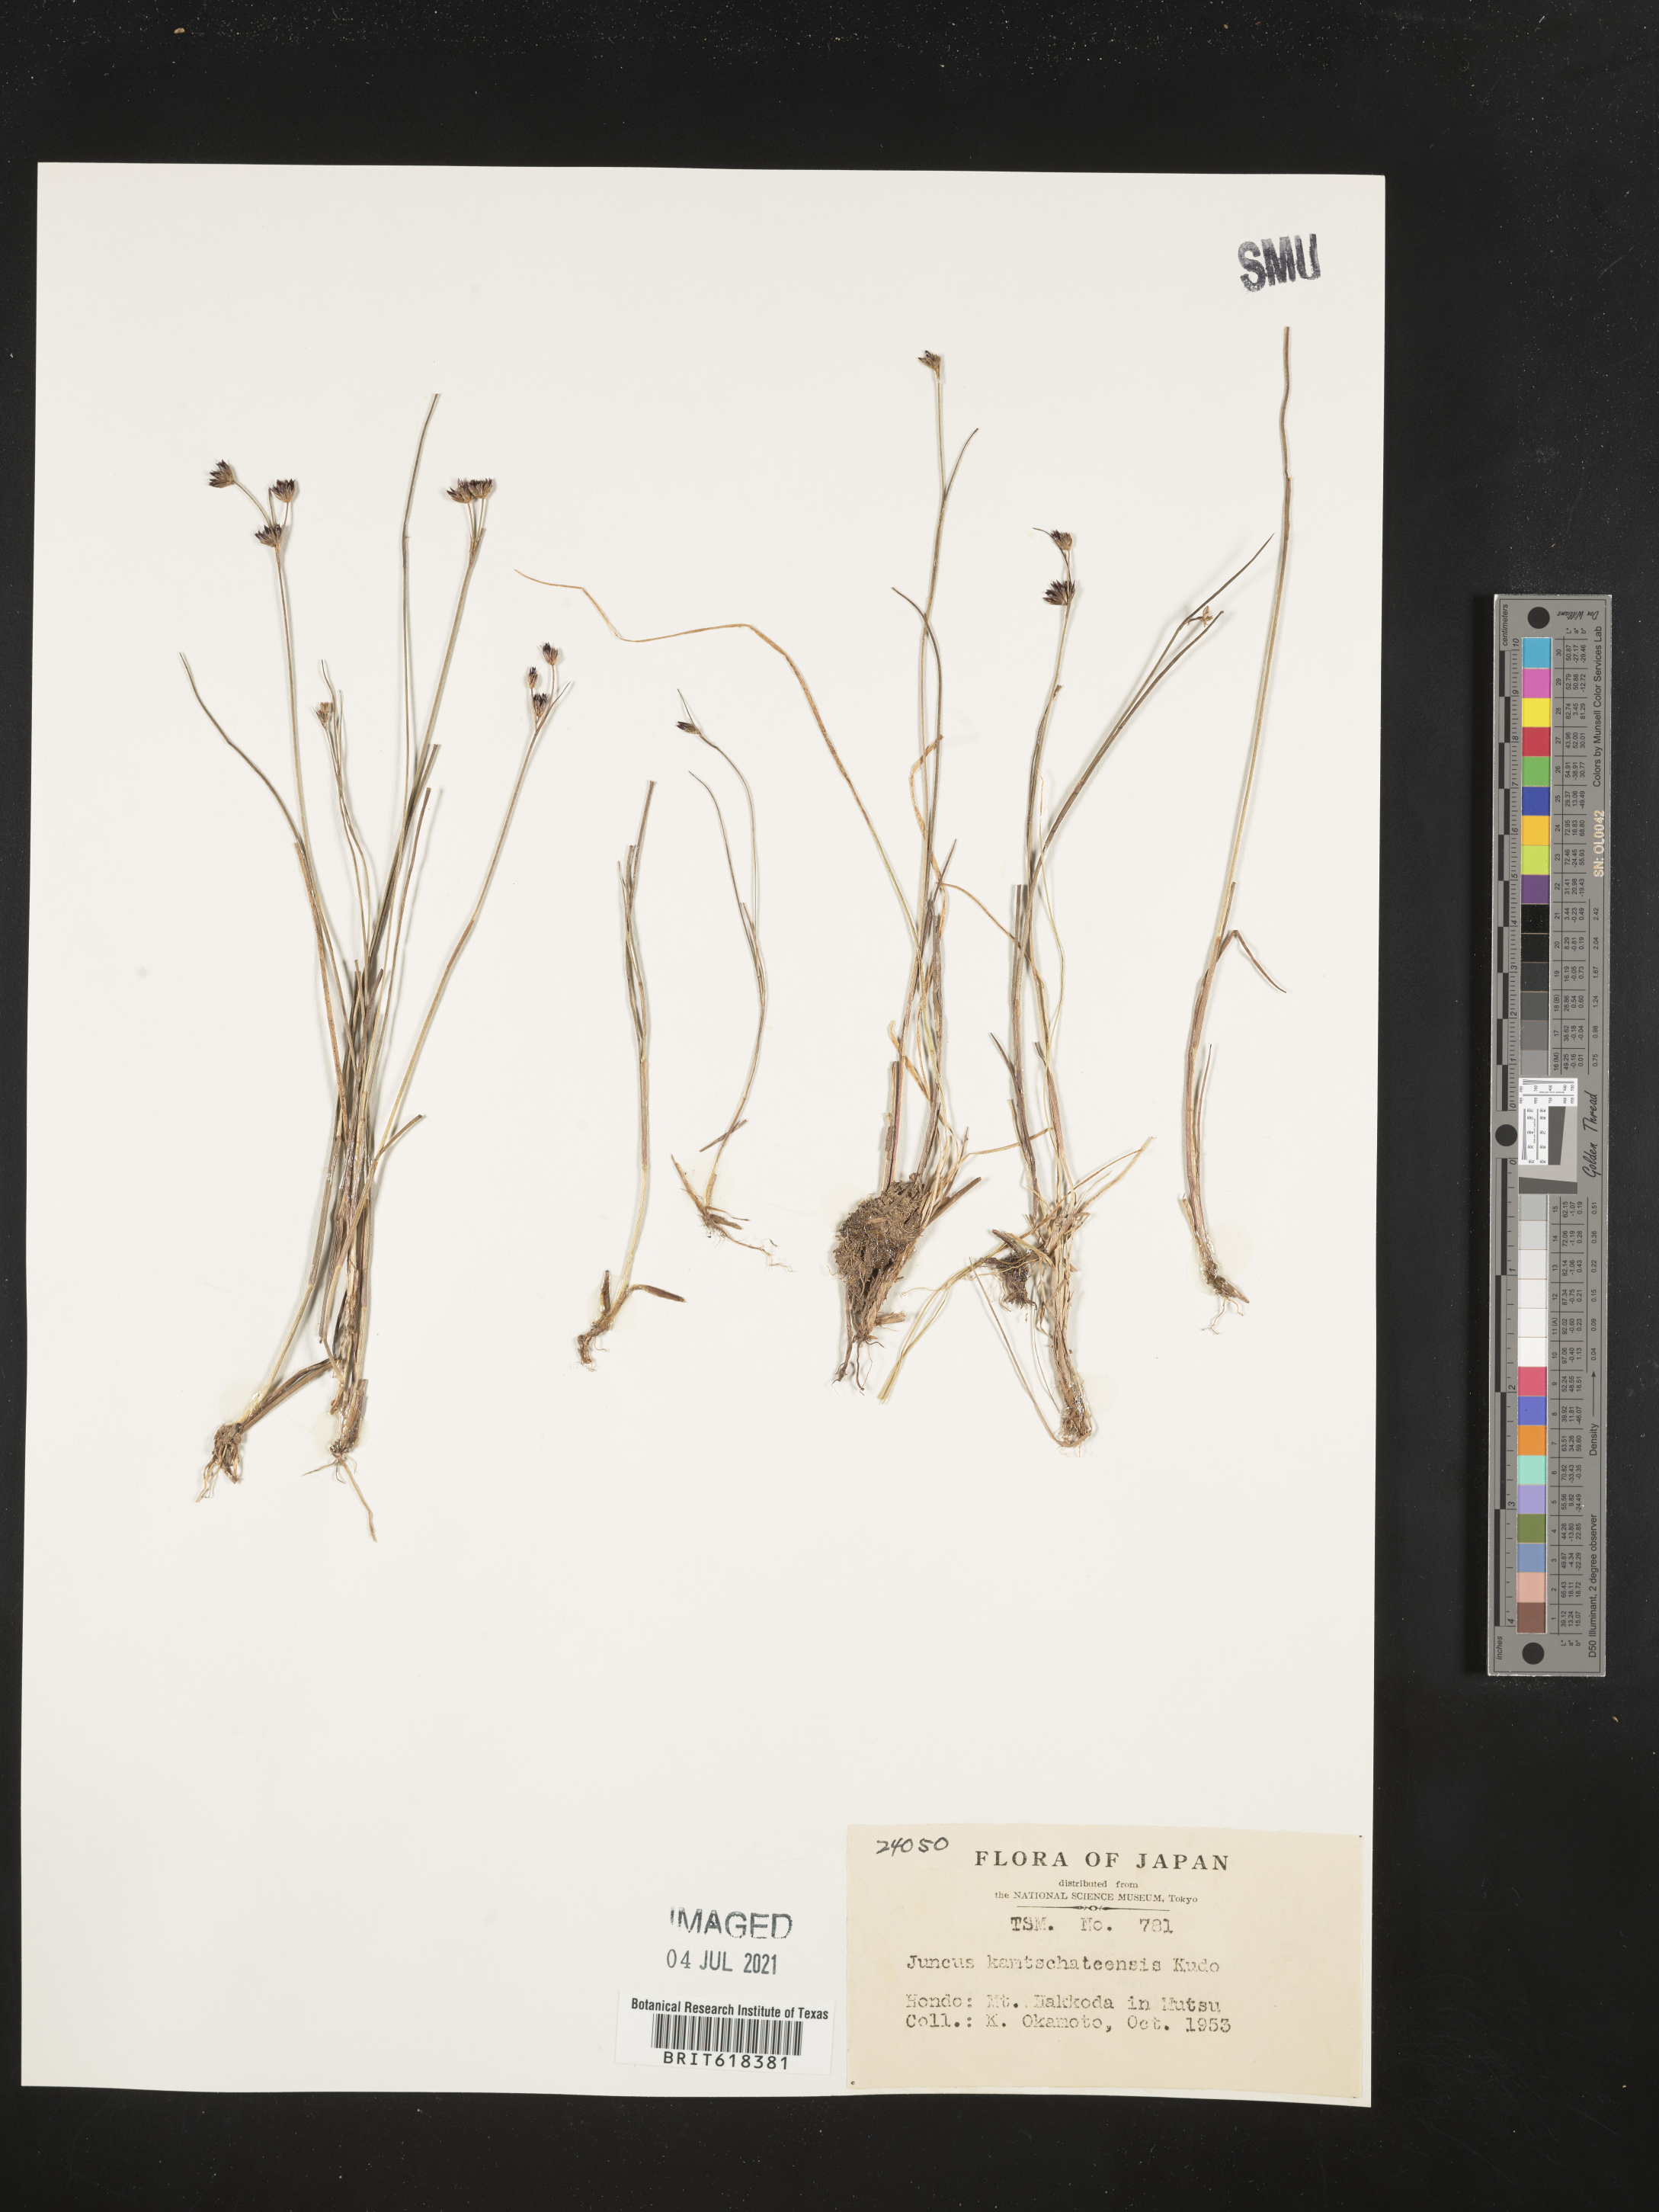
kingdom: Plantae
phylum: Tracheophyta
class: Liliopsida
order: Poales
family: Juncaceae
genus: Juncus
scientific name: Juncus fauriensis
